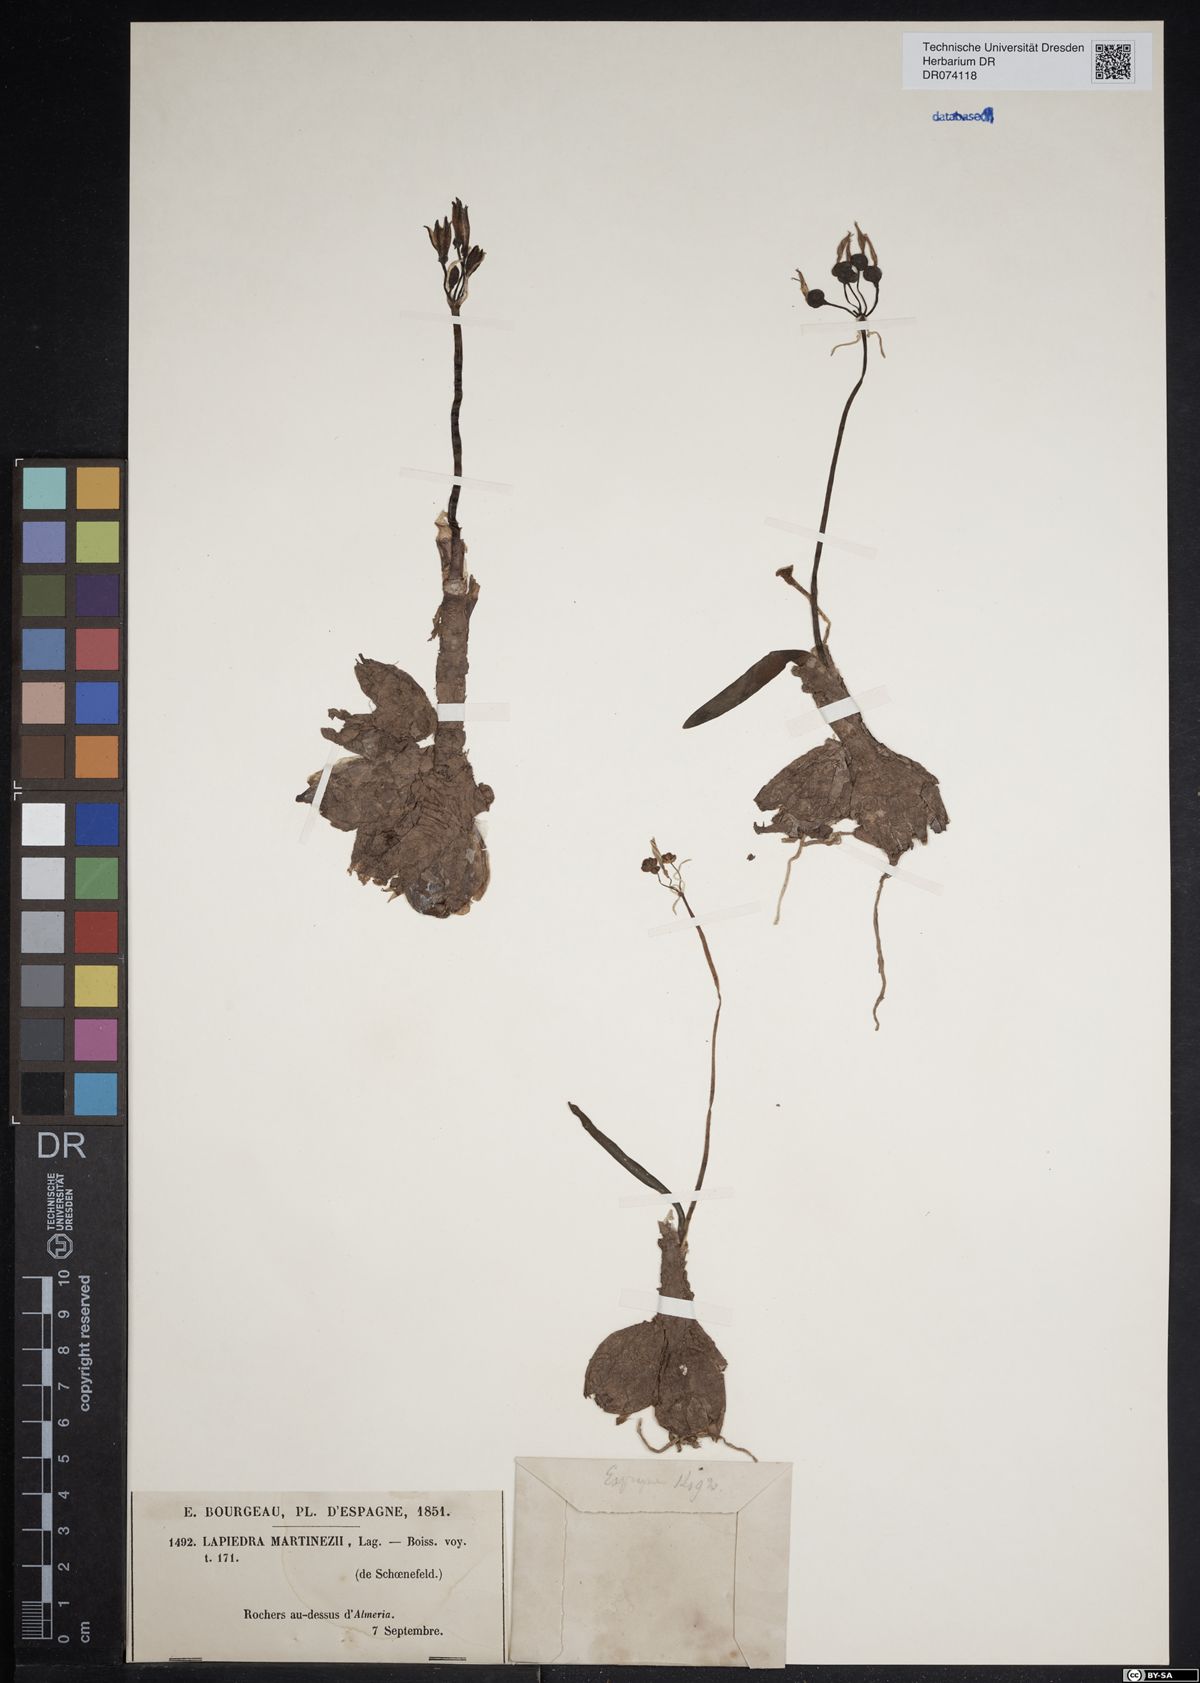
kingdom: Plantae
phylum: Tracheophyta
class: Liliopsida
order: Asparagales
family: Amaryllidaceae
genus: Lapiedra
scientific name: Lapiedra martinezii
